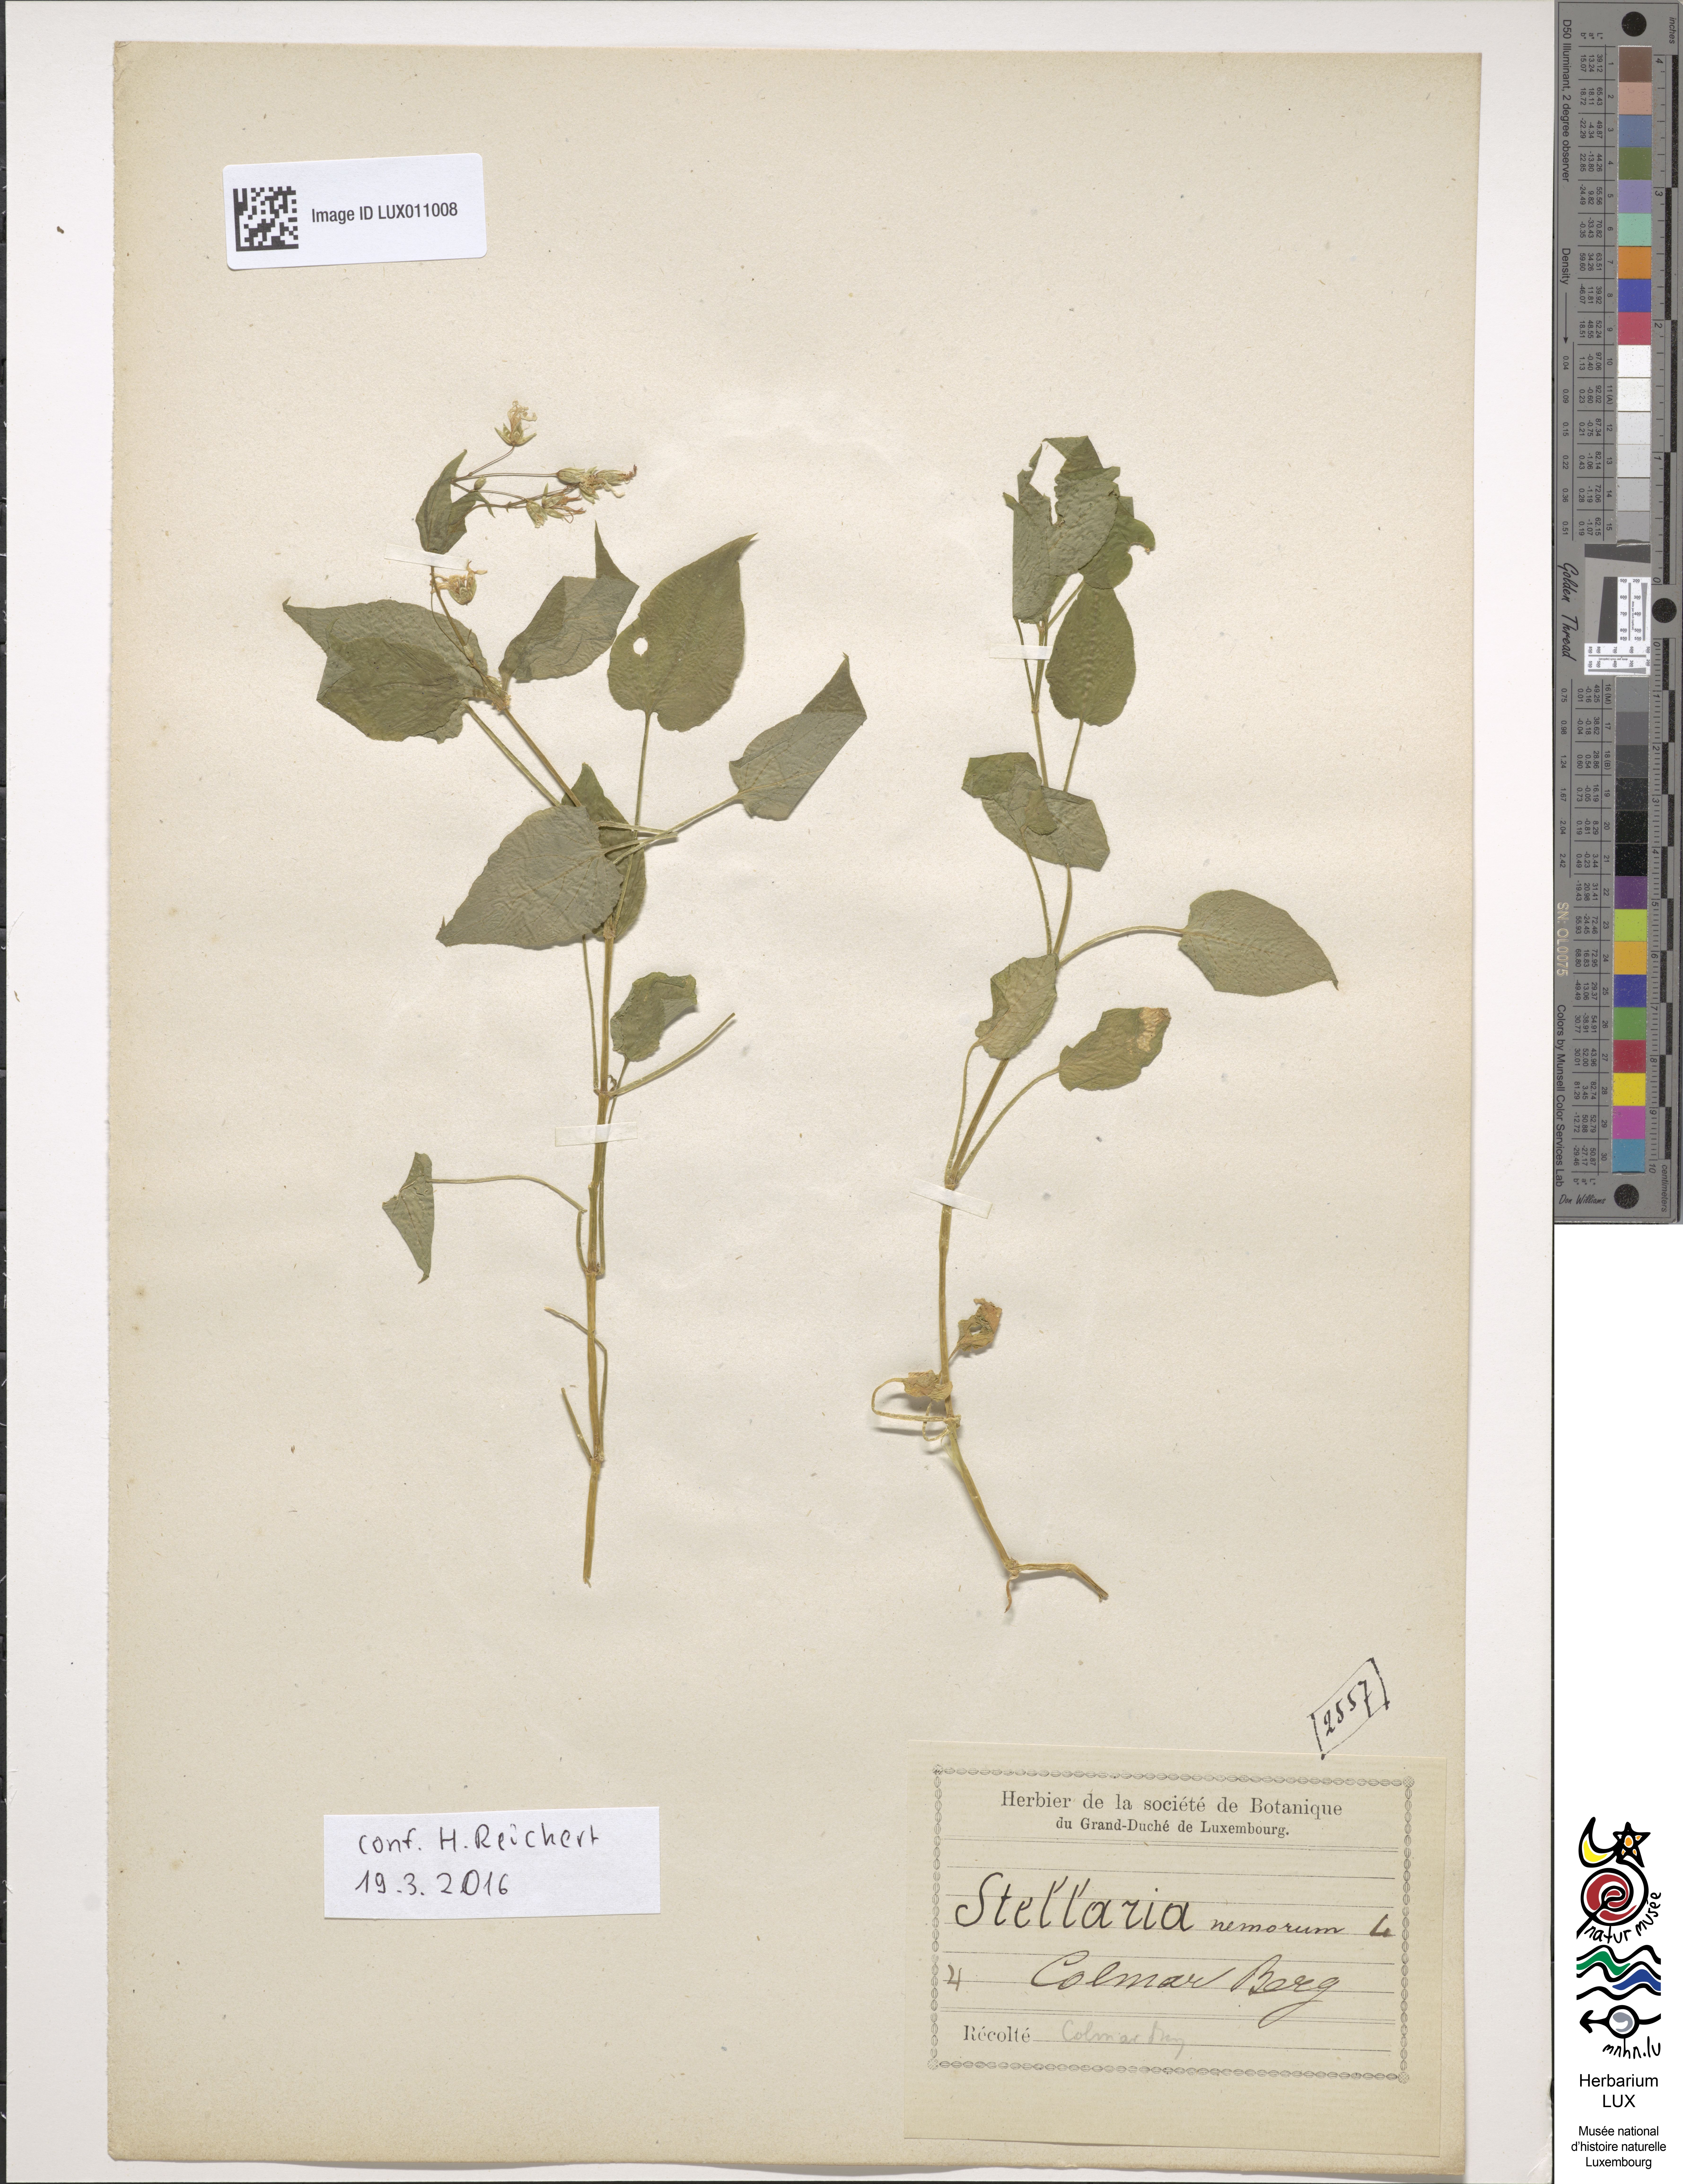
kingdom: Plantae
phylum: Tracheophyta
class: Magnoliopsida
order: Caryophyllales
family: Caryophyllaceae
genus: Stellaria
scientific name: Stellaria nemorum
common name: Wood stitchwort
